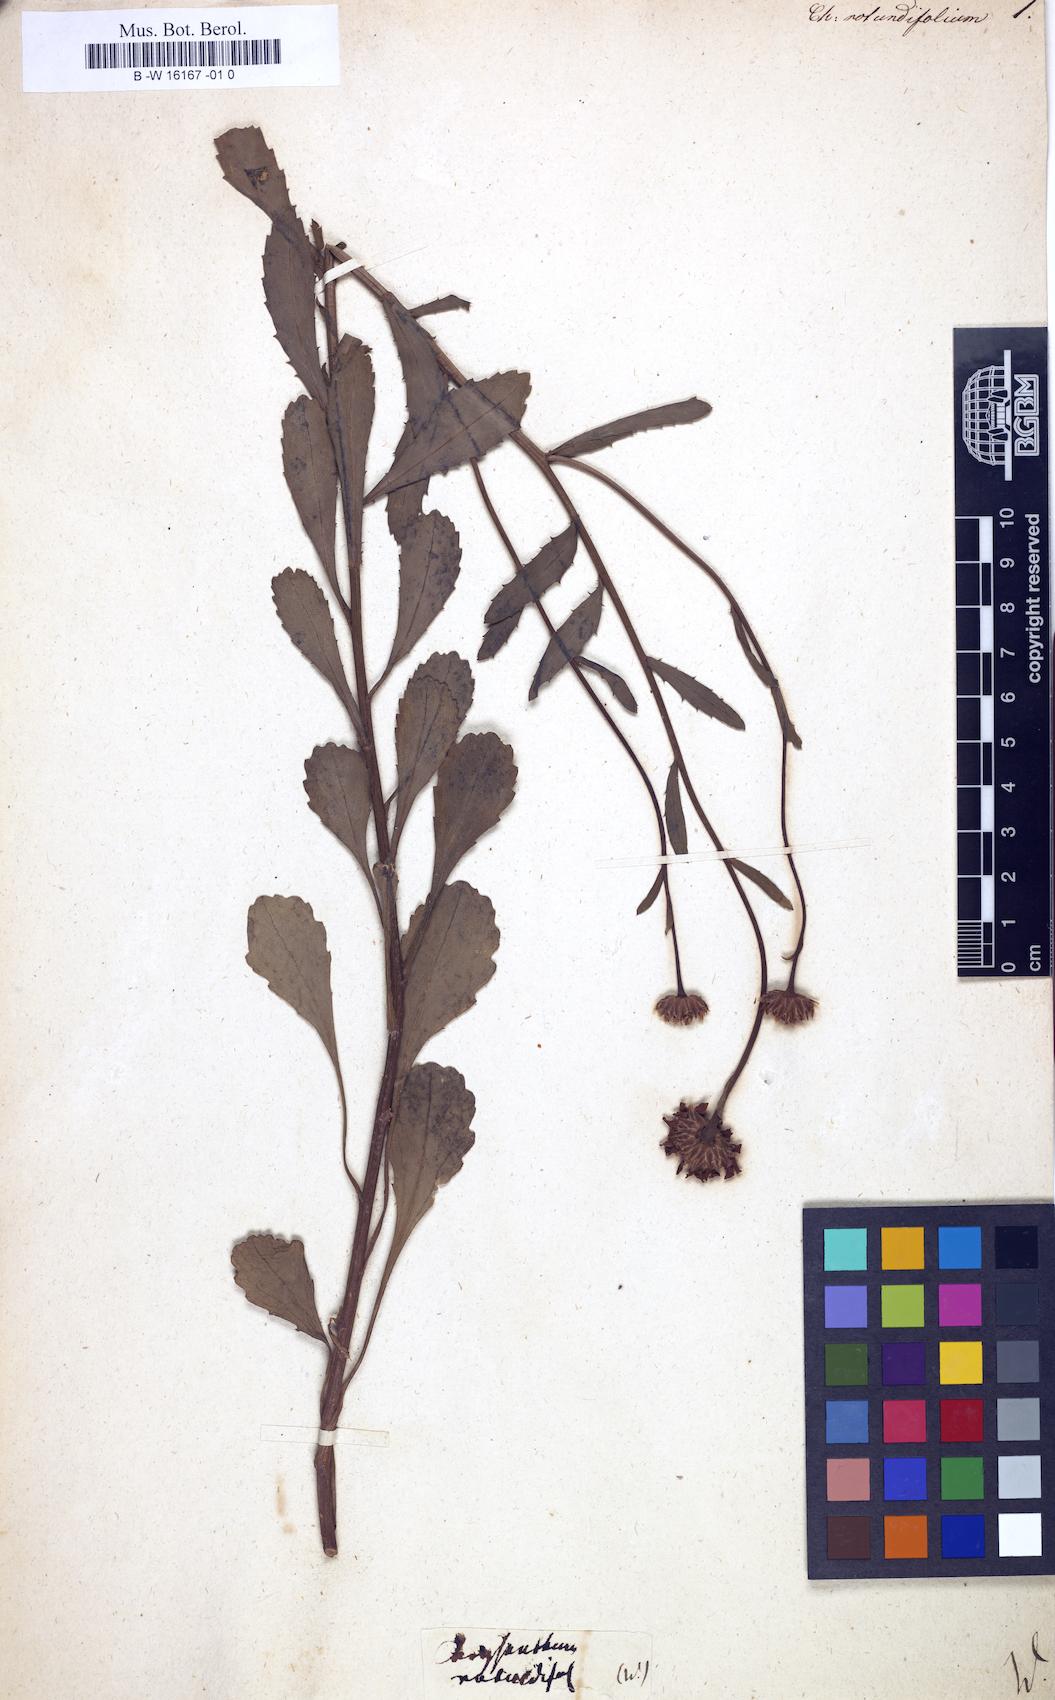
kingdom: Plantae
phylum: Tracheophyta
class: Magnoliopsida
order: Asterales
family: Asteraceae
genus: Leucanthemum
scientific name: Leucanthemum rotundifolium
